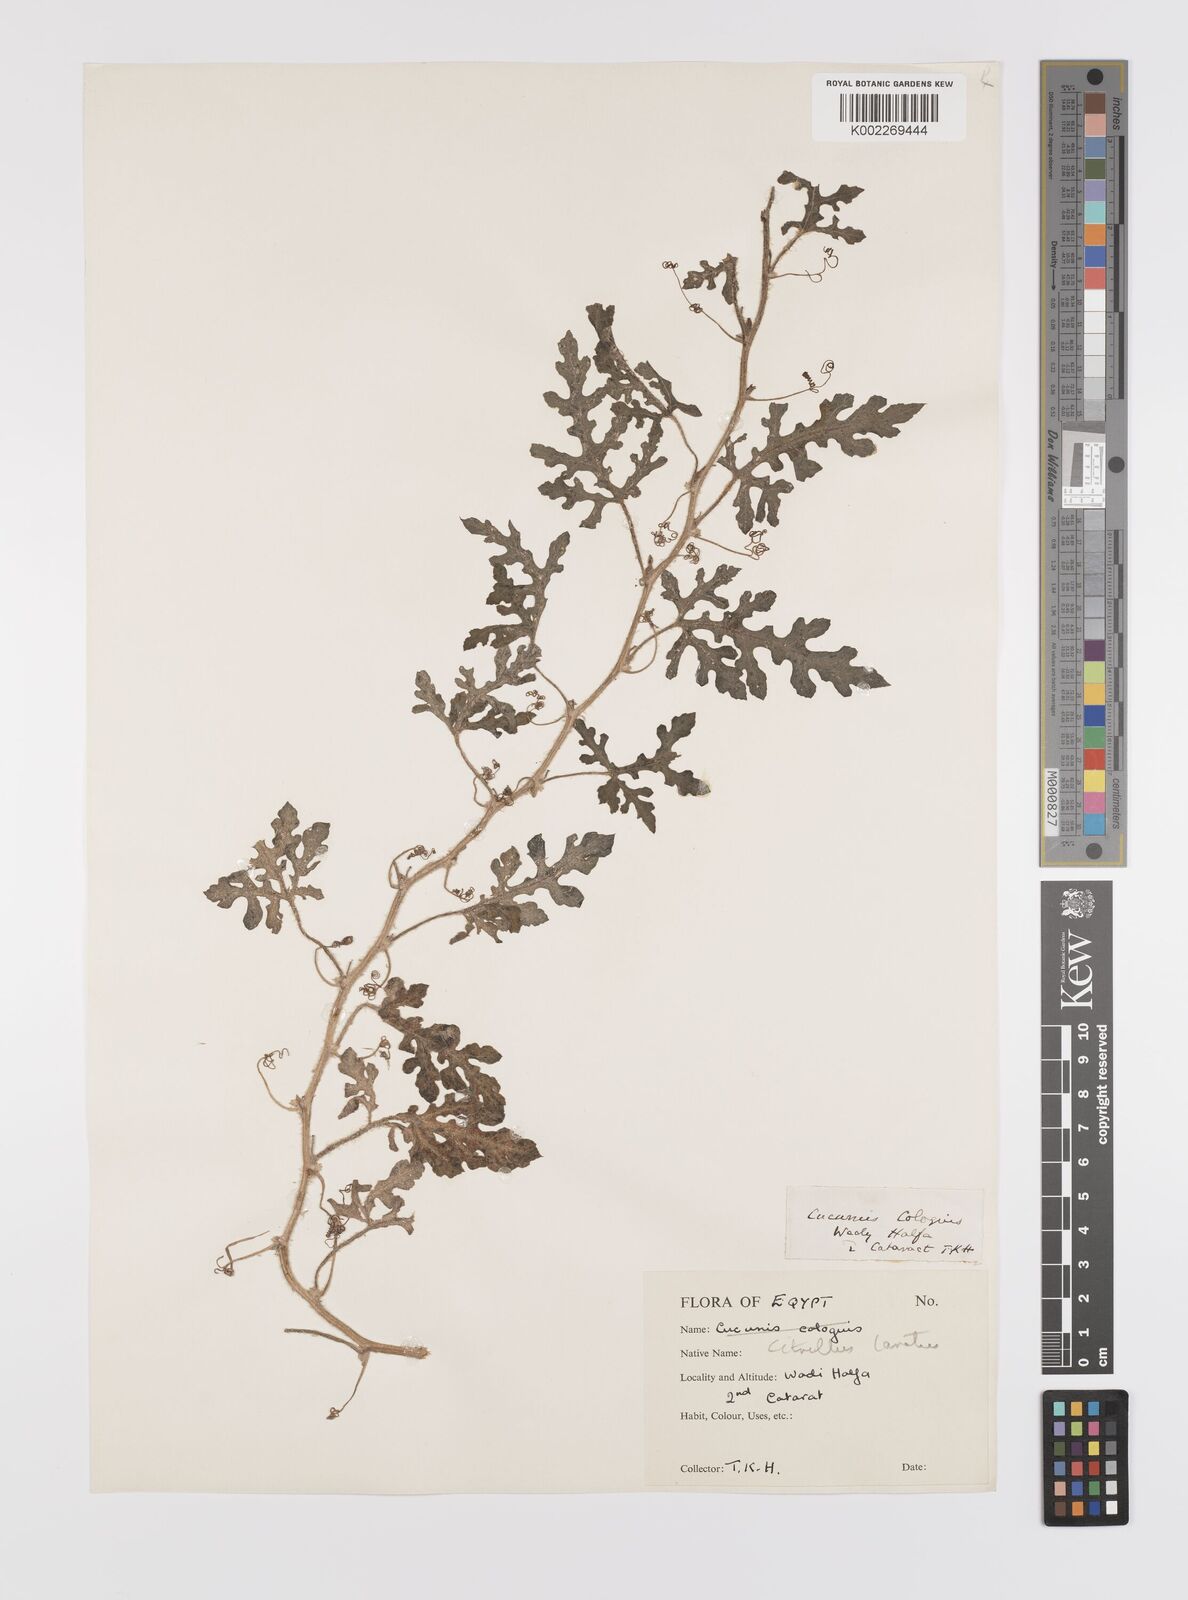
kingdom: Plantae
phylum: Tracheophyta
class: Magnoliopsida
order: Cucurbitales
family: Cucurbitaceae
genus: Citrullus
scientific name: Citrullus lanatus
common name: Watermelon
